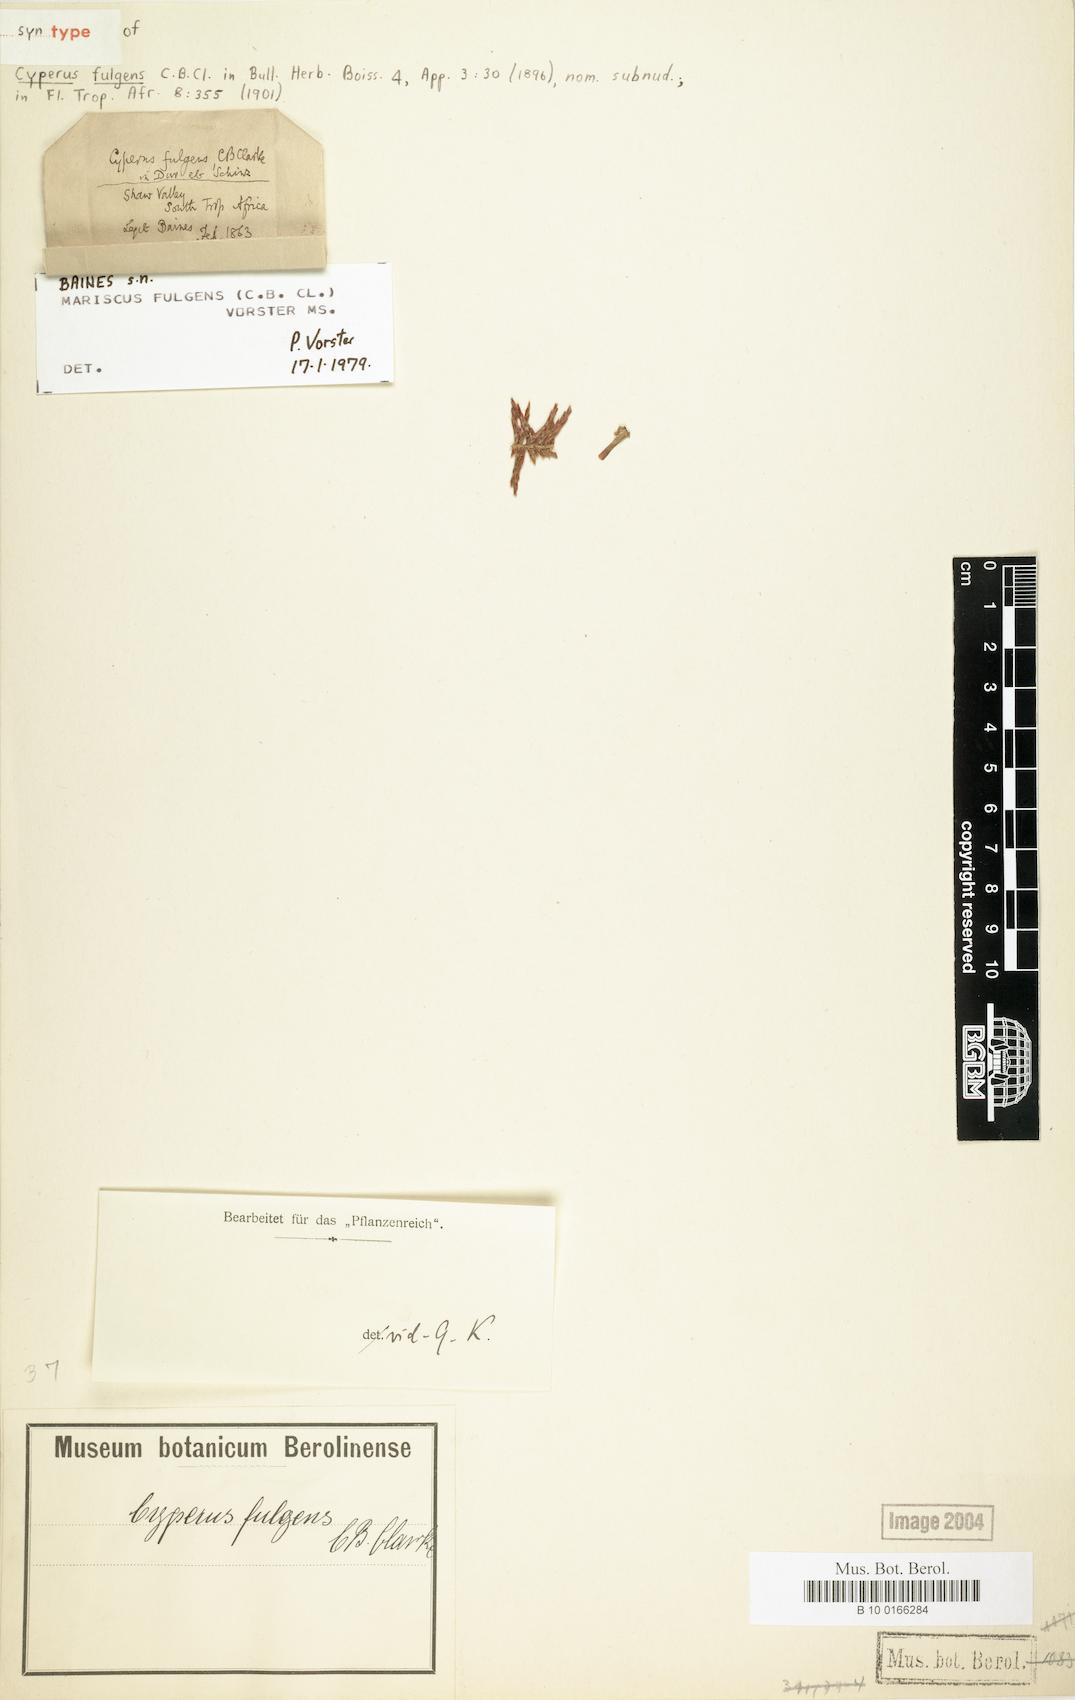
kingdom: Plantae
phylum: Tracheophyta
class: Liliopsida
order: Poales
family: Cyperaceae
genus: Cyperus
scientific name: Cyperus callistus
